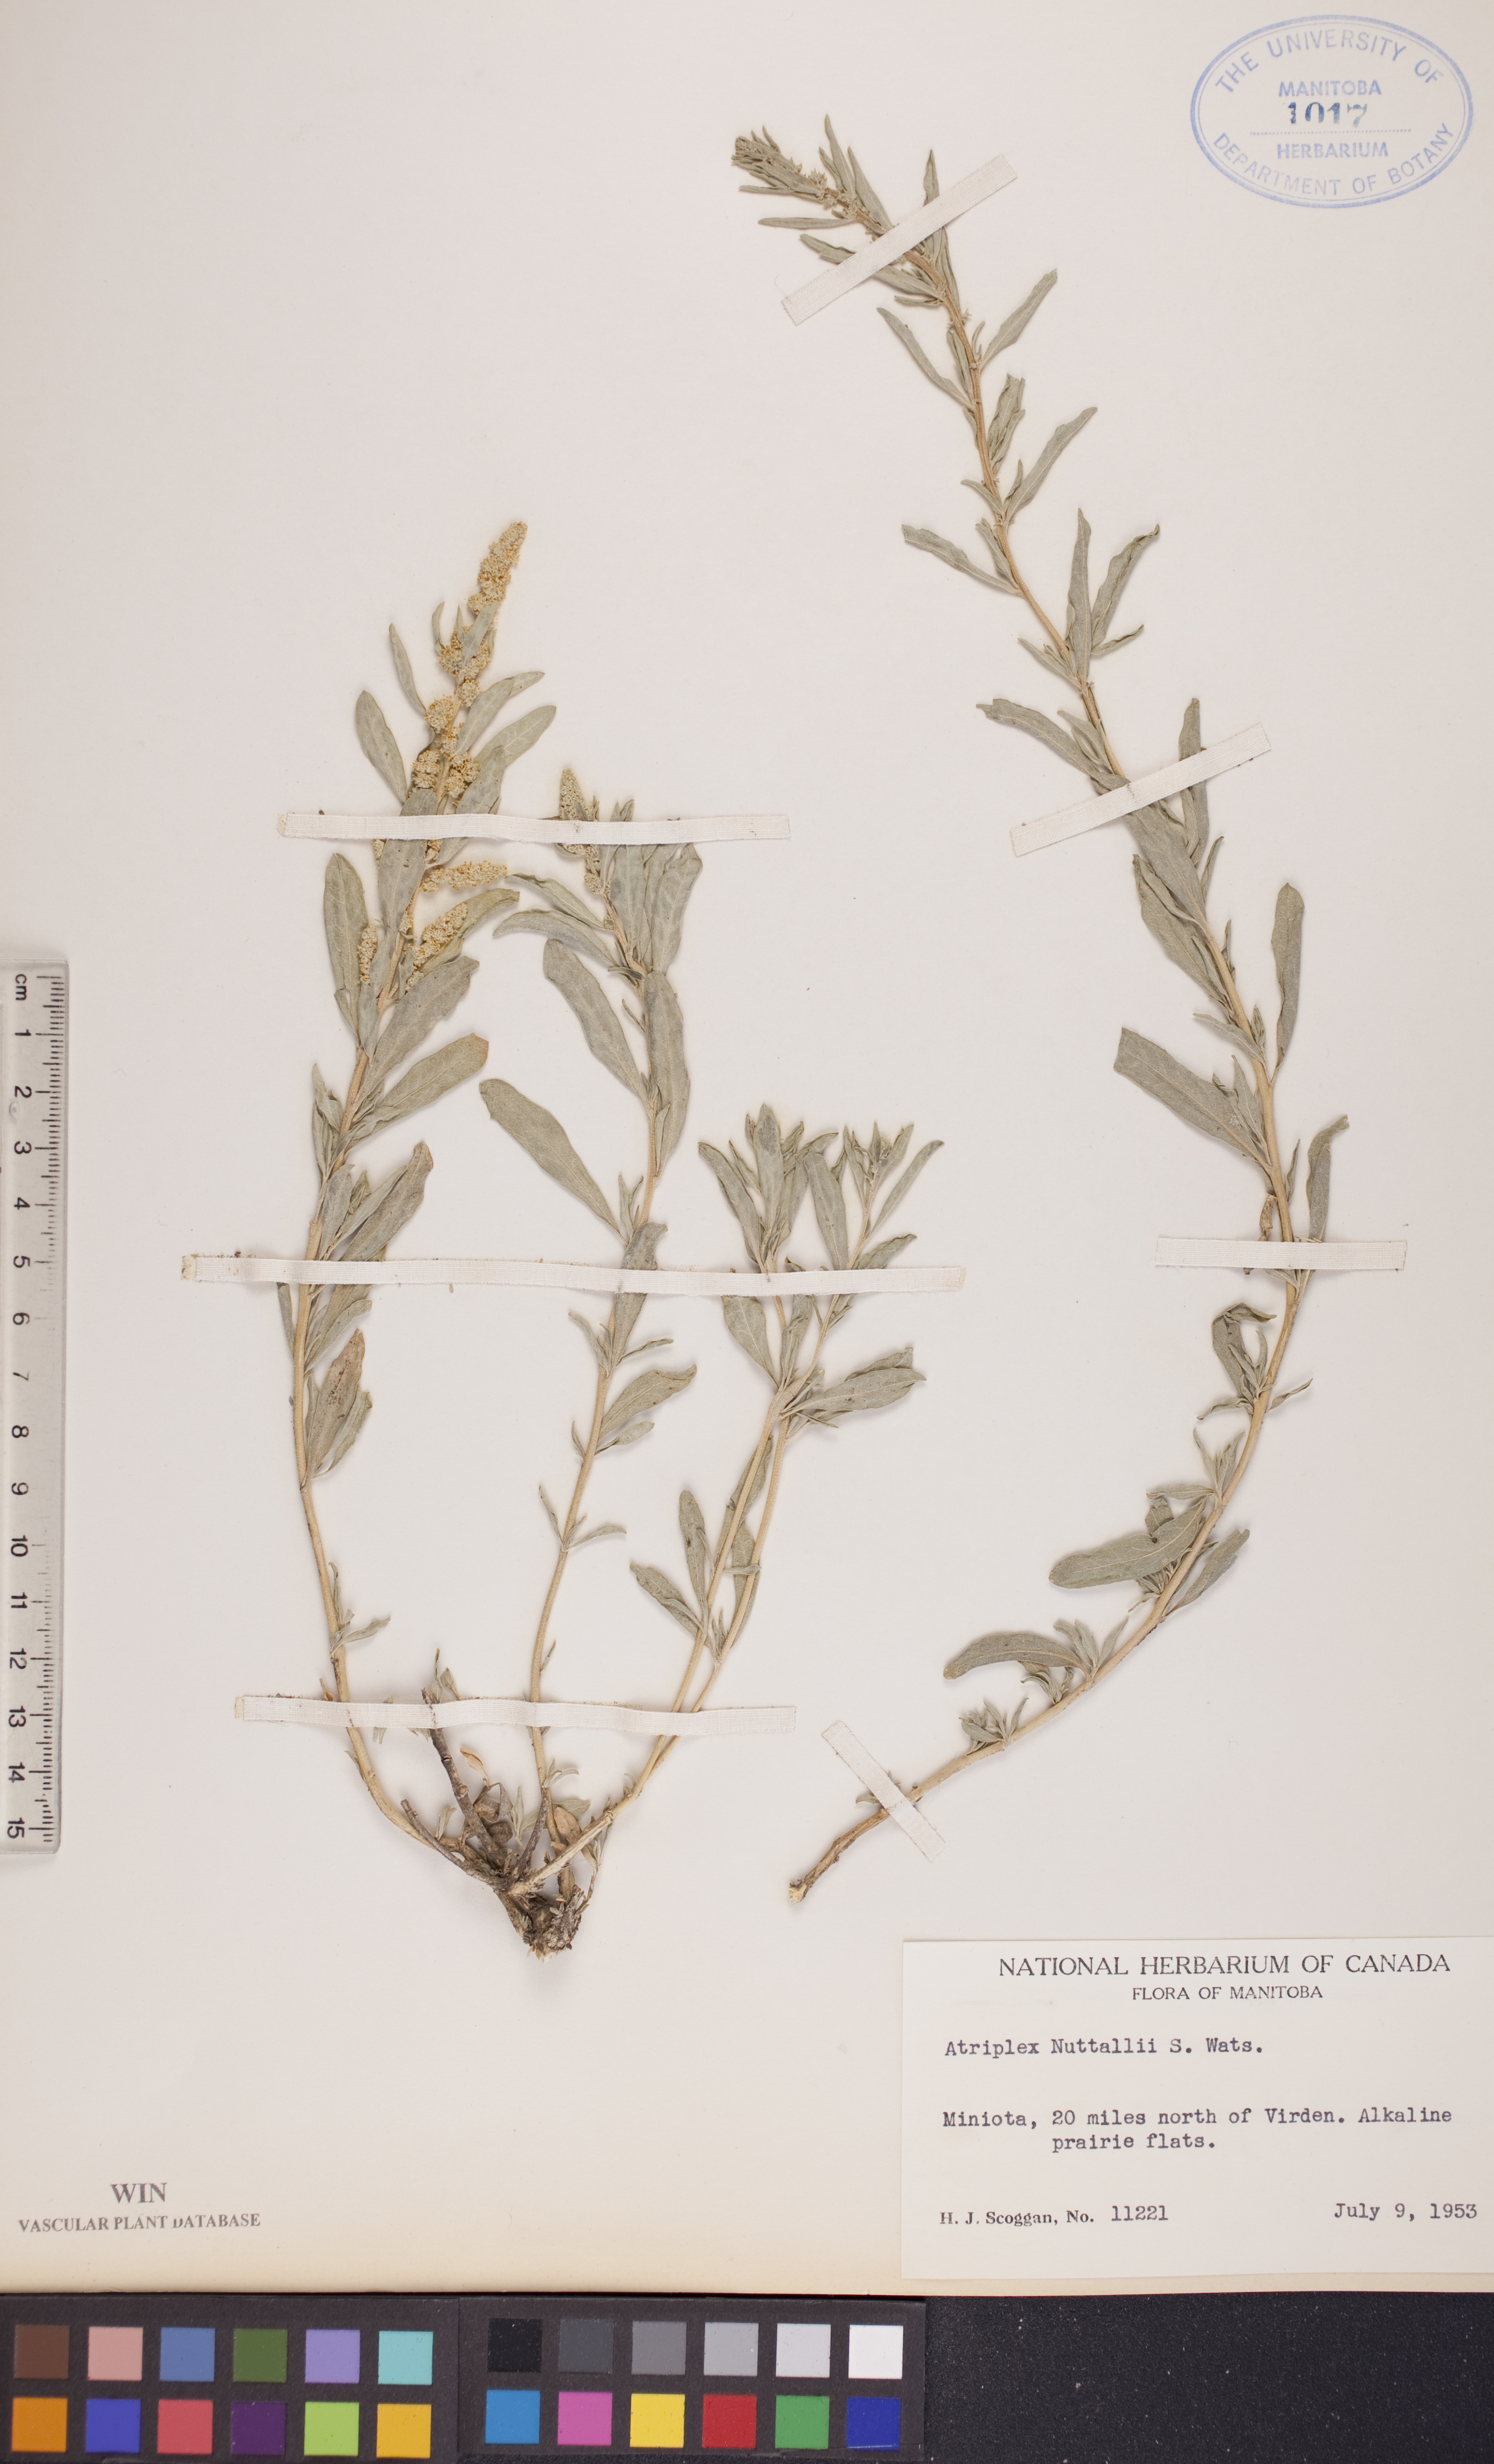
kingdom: Plantae
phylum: Tracheophyta
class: Magnoliopsida
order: Caryophyllales
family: Amaranthaceae
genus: Atriplex
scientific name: Atriplex canescens
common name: Four-wing saltbush
